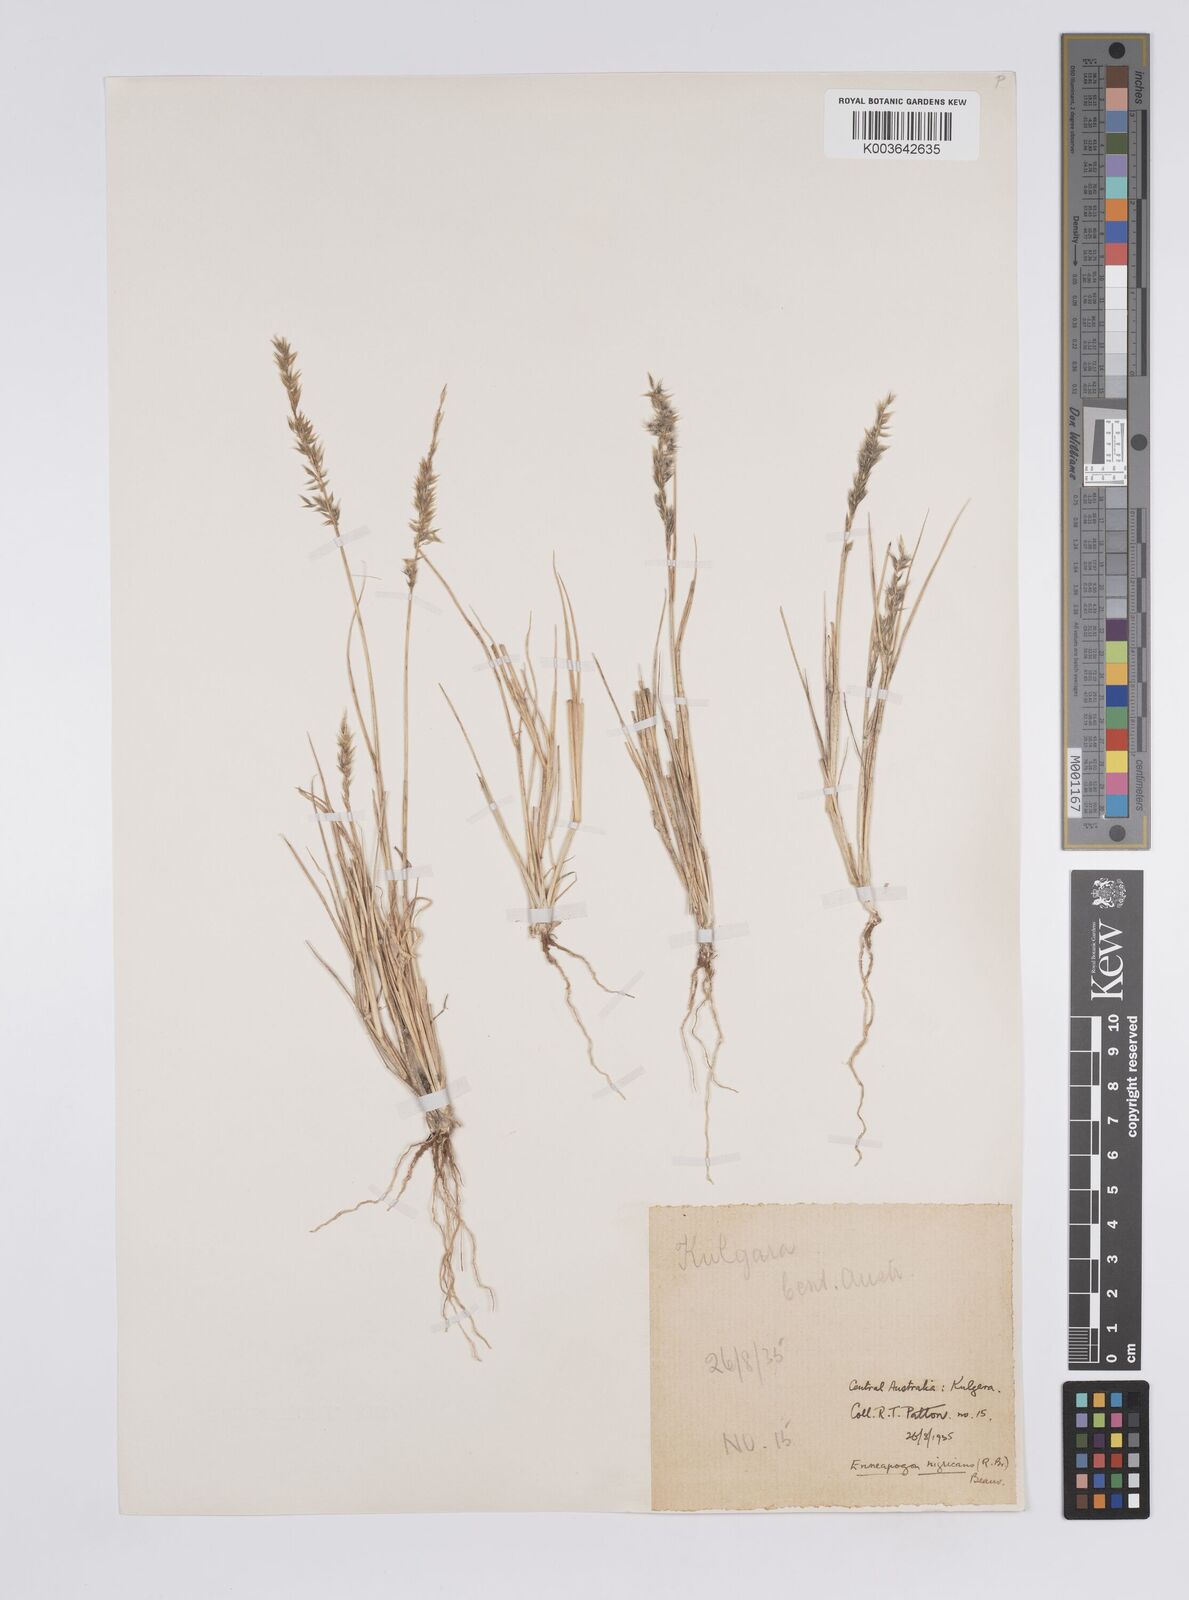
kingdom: Plantae
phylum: Tracheophyta
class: Liliopsida
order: Poales
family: Poaceae
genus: Enneapogon
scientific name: Enneapogon nigricans
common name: Pappus grass
